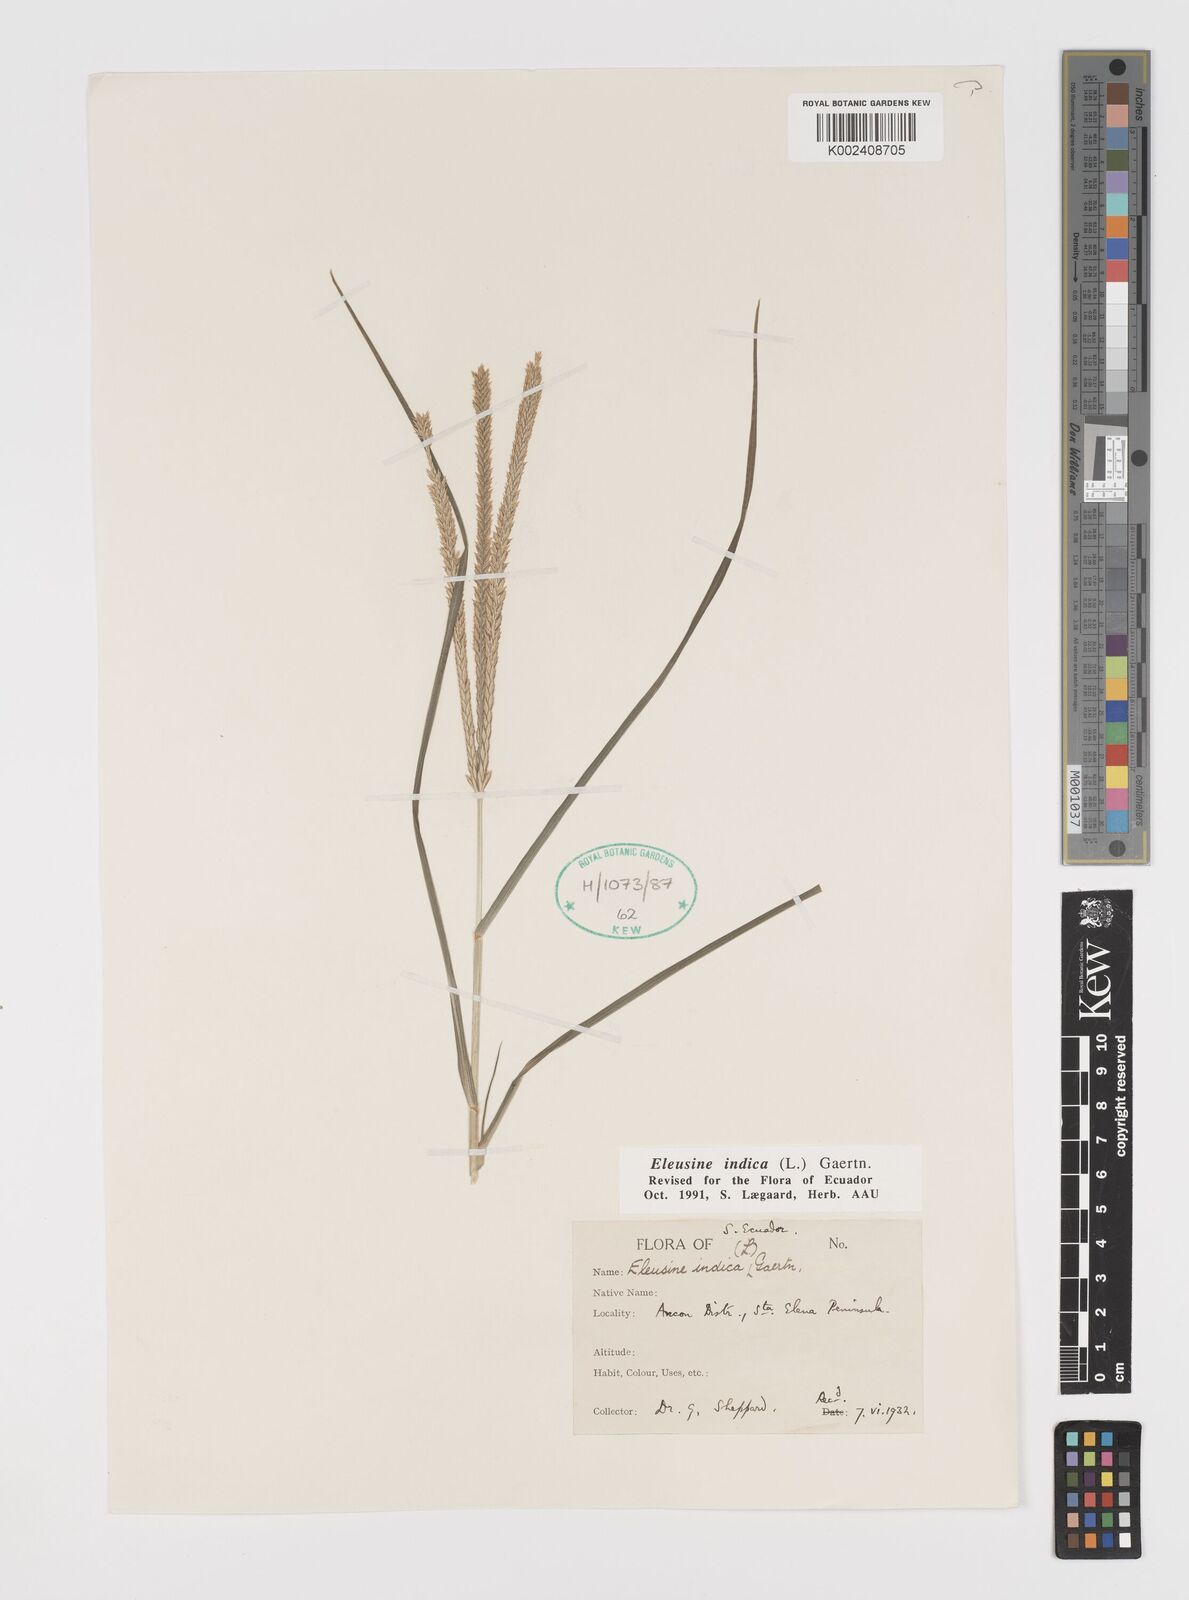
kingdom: Plantae
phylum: Tracheophyta
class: Liliopsida
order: Poales
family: Poaceae
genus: Eleusine
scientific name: Eleusine indica
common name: Yard-grass
